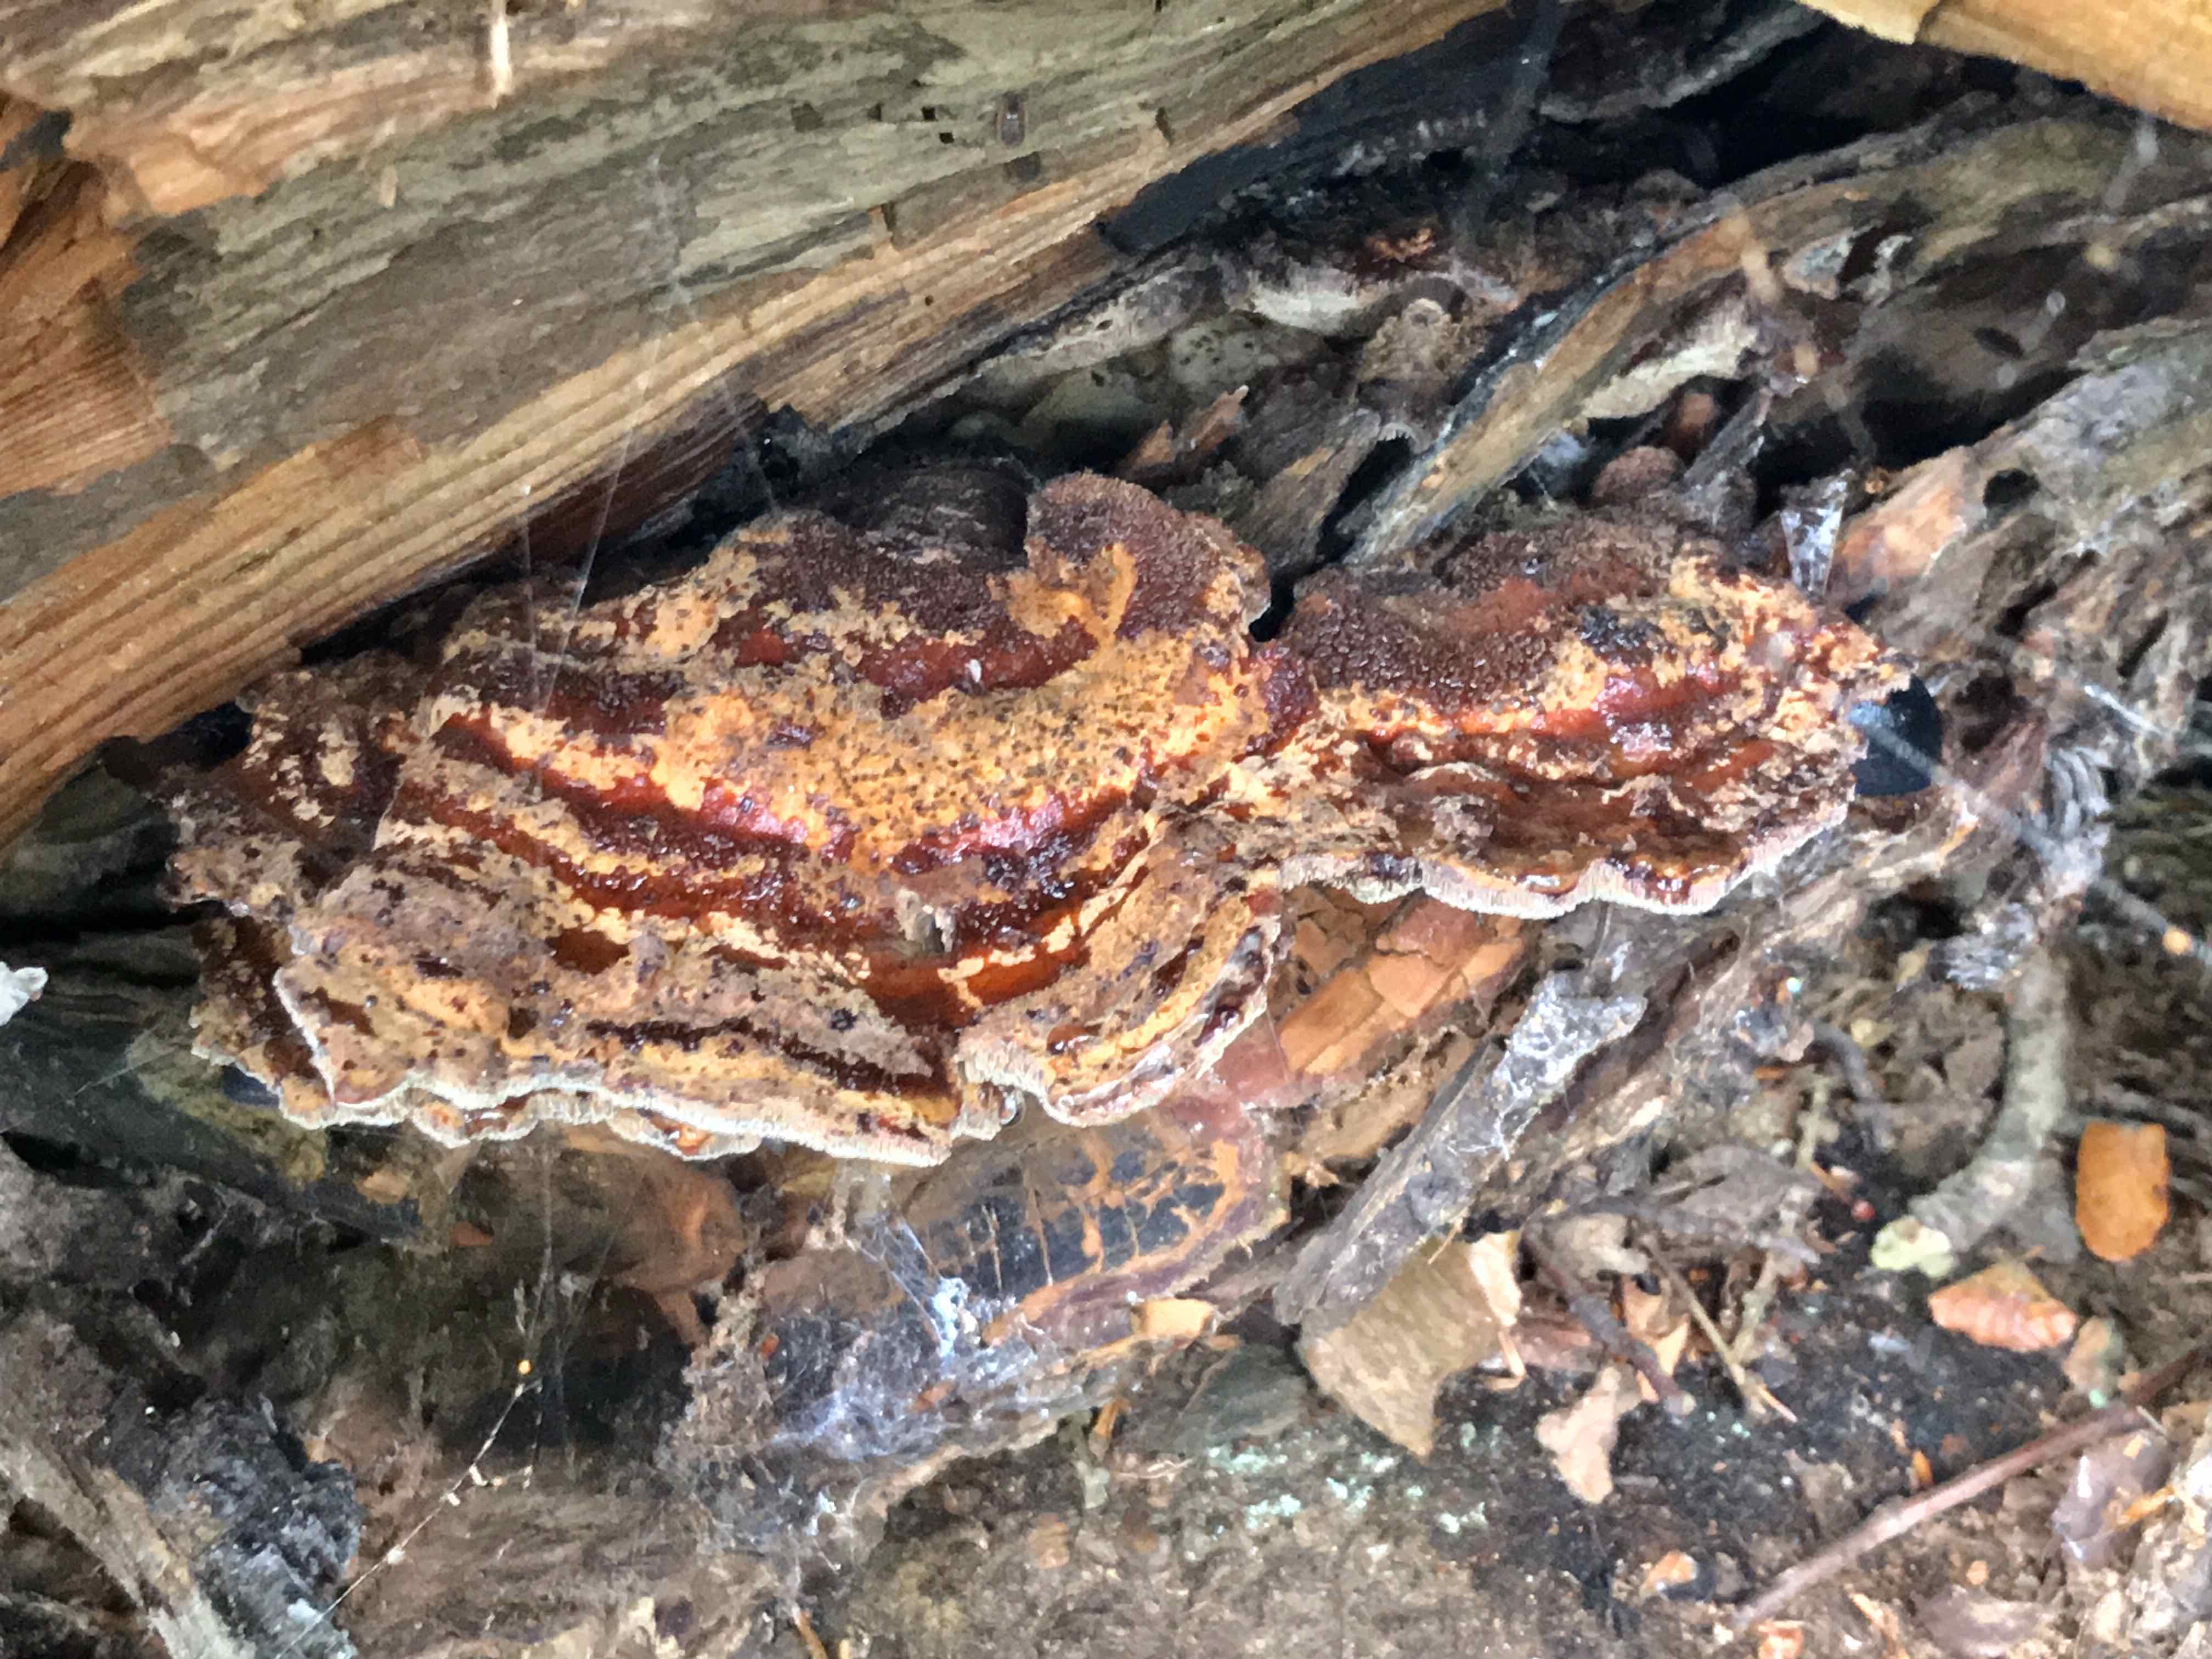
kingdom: Fungi
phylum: Basidiomycota
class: Agaricomycetes
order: Polyporales
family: Laetiporaceae
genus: Phaeolus
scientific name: Phaeolus schweinitzii
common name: brunporesvamp
